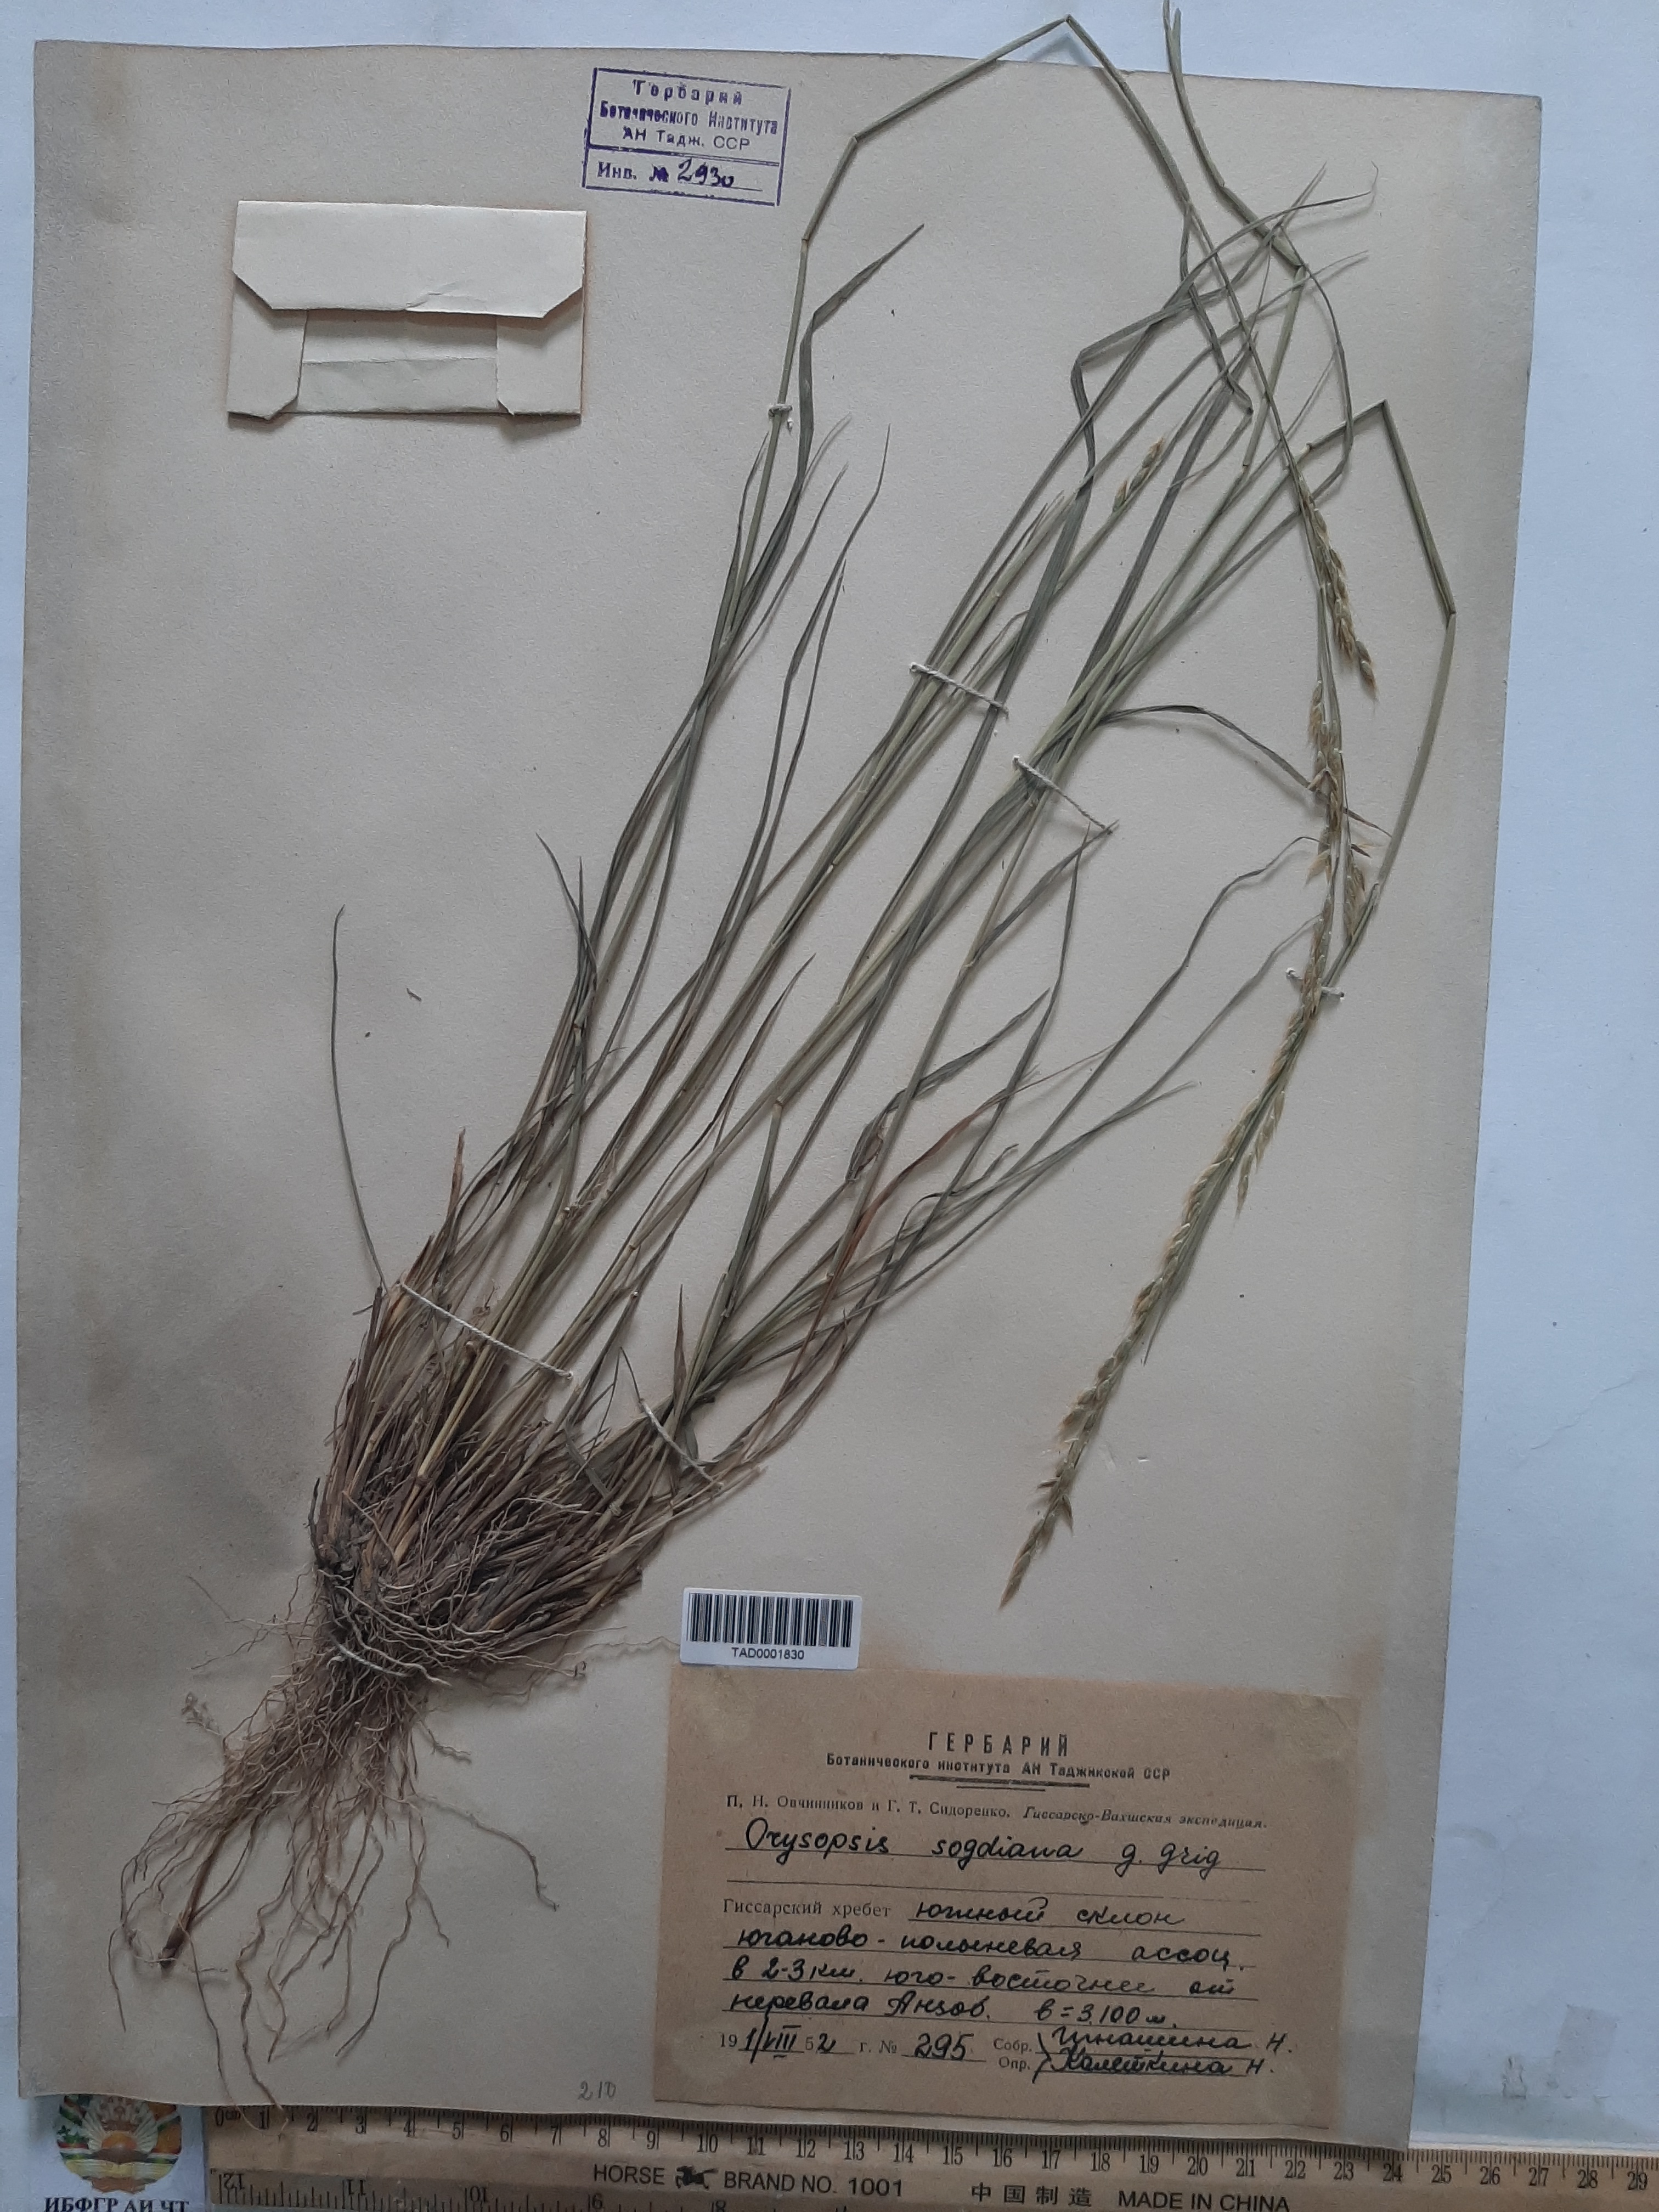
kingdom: Plantae
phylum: Tracheophyta
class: Liliopsida
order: Poales
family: Poaceae
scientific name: Poaceae
